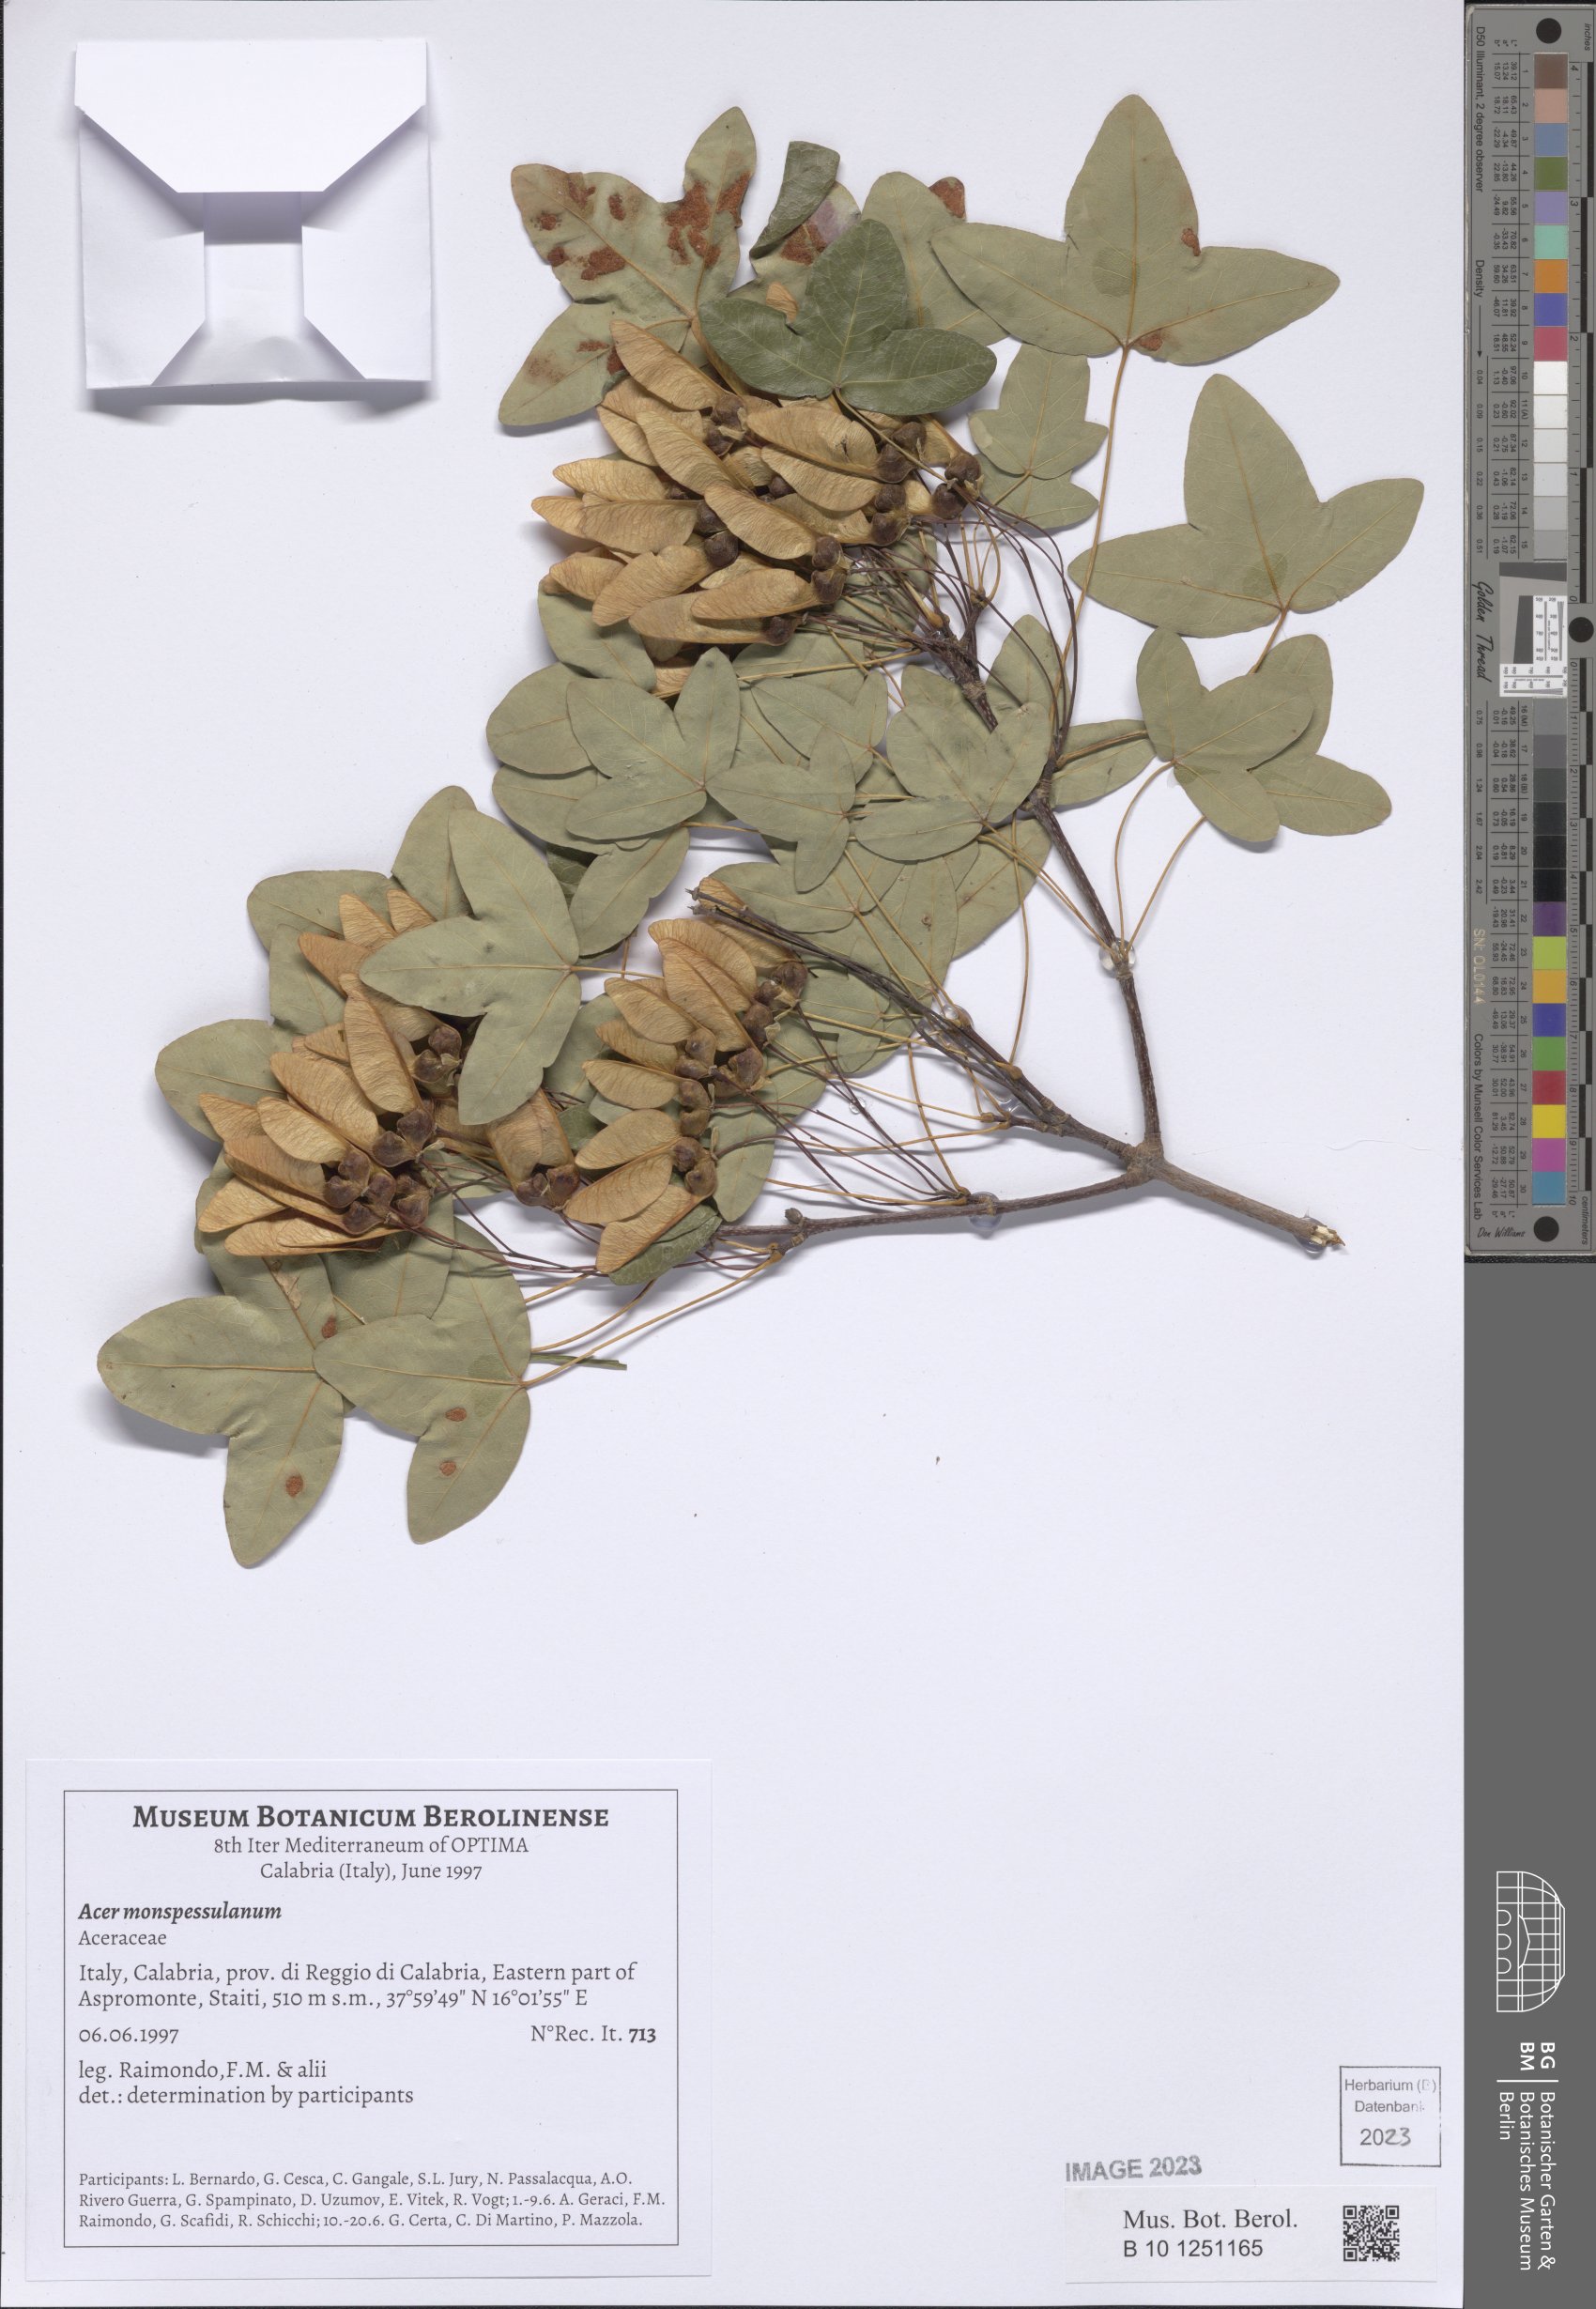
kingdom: Plantae
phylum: Tracheophyta
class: Magnoliopsida
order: Sapindales
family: Sapindaceae
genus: Acer
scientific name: Acer monspessulanum
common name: Montpellier maple
